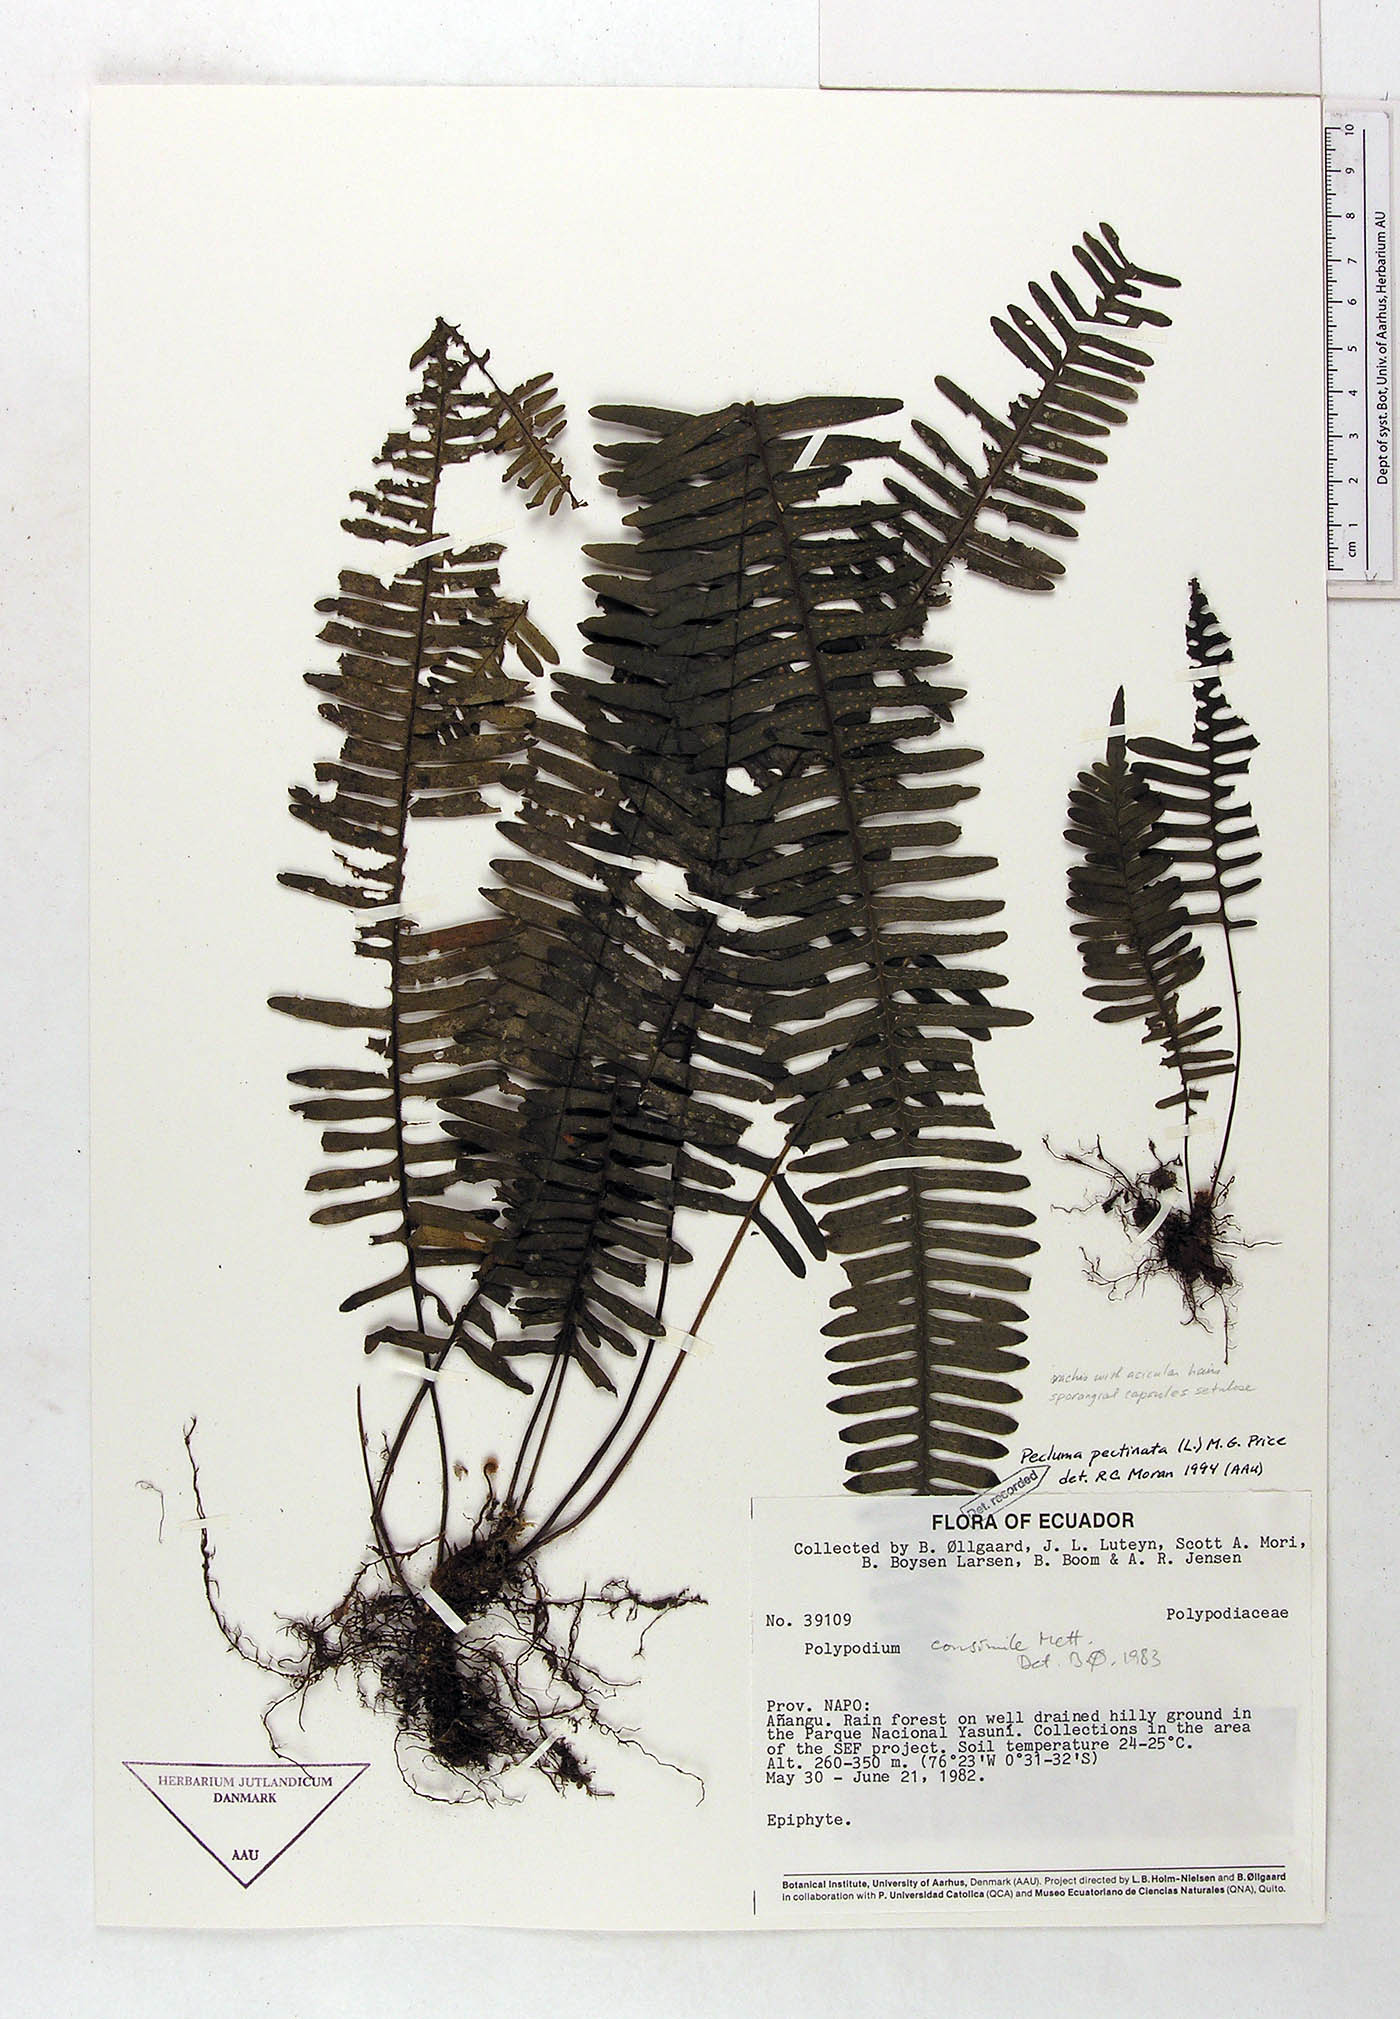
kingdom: Plantae
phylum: Tracheophyta
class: Polypodiopsida
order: Polypodiales
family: Polypodiaceae
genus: Pecluma
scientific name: Pecluma pectinata
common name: Msasa fern
